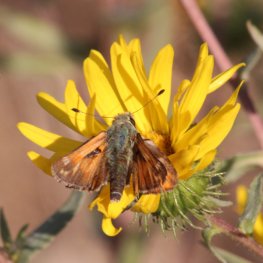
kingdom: Animalia
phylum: Arthropoda
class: Insecta
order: Lepidoptera
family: Hesperiidae
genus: Hesperia
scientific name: Hesperia comma
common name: Western Branded Skipper
